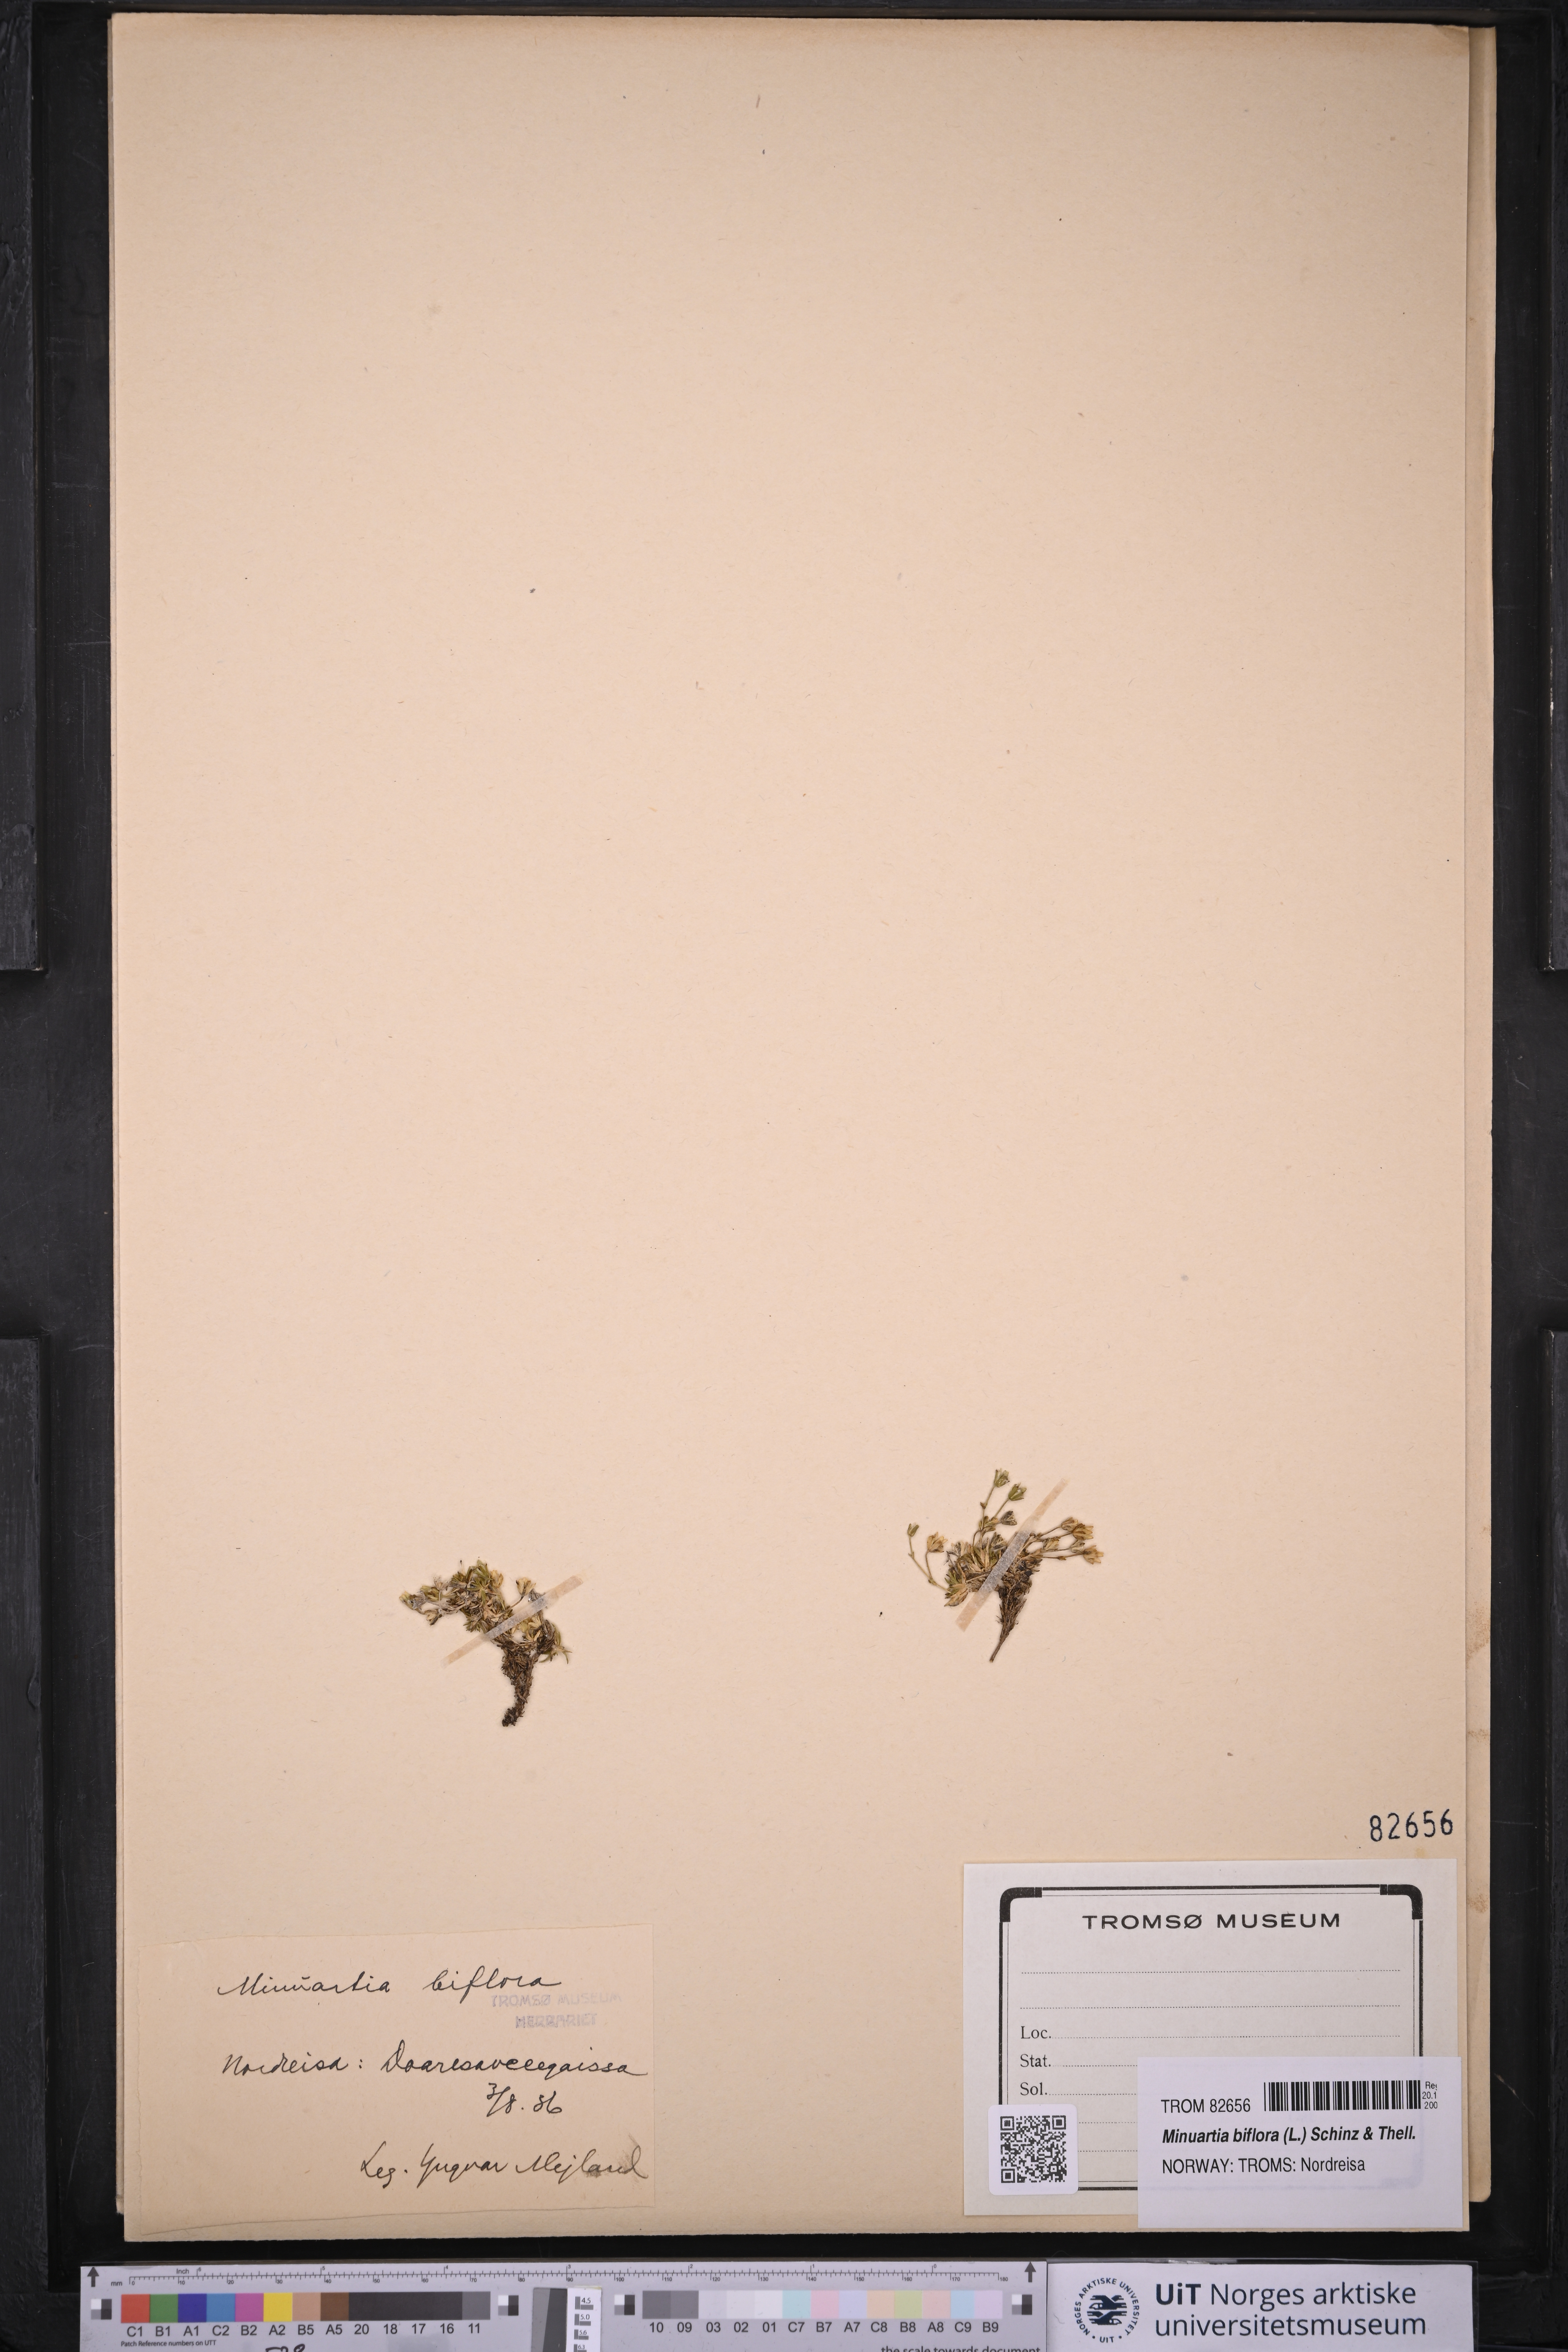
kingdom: Plantae
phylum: Tracheophyta
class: Magnoliopsida
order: Caryophyllales
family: Caryophyllaceae
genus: Cherleria
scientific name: Cherleria biflora
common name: Mountain sandwort
